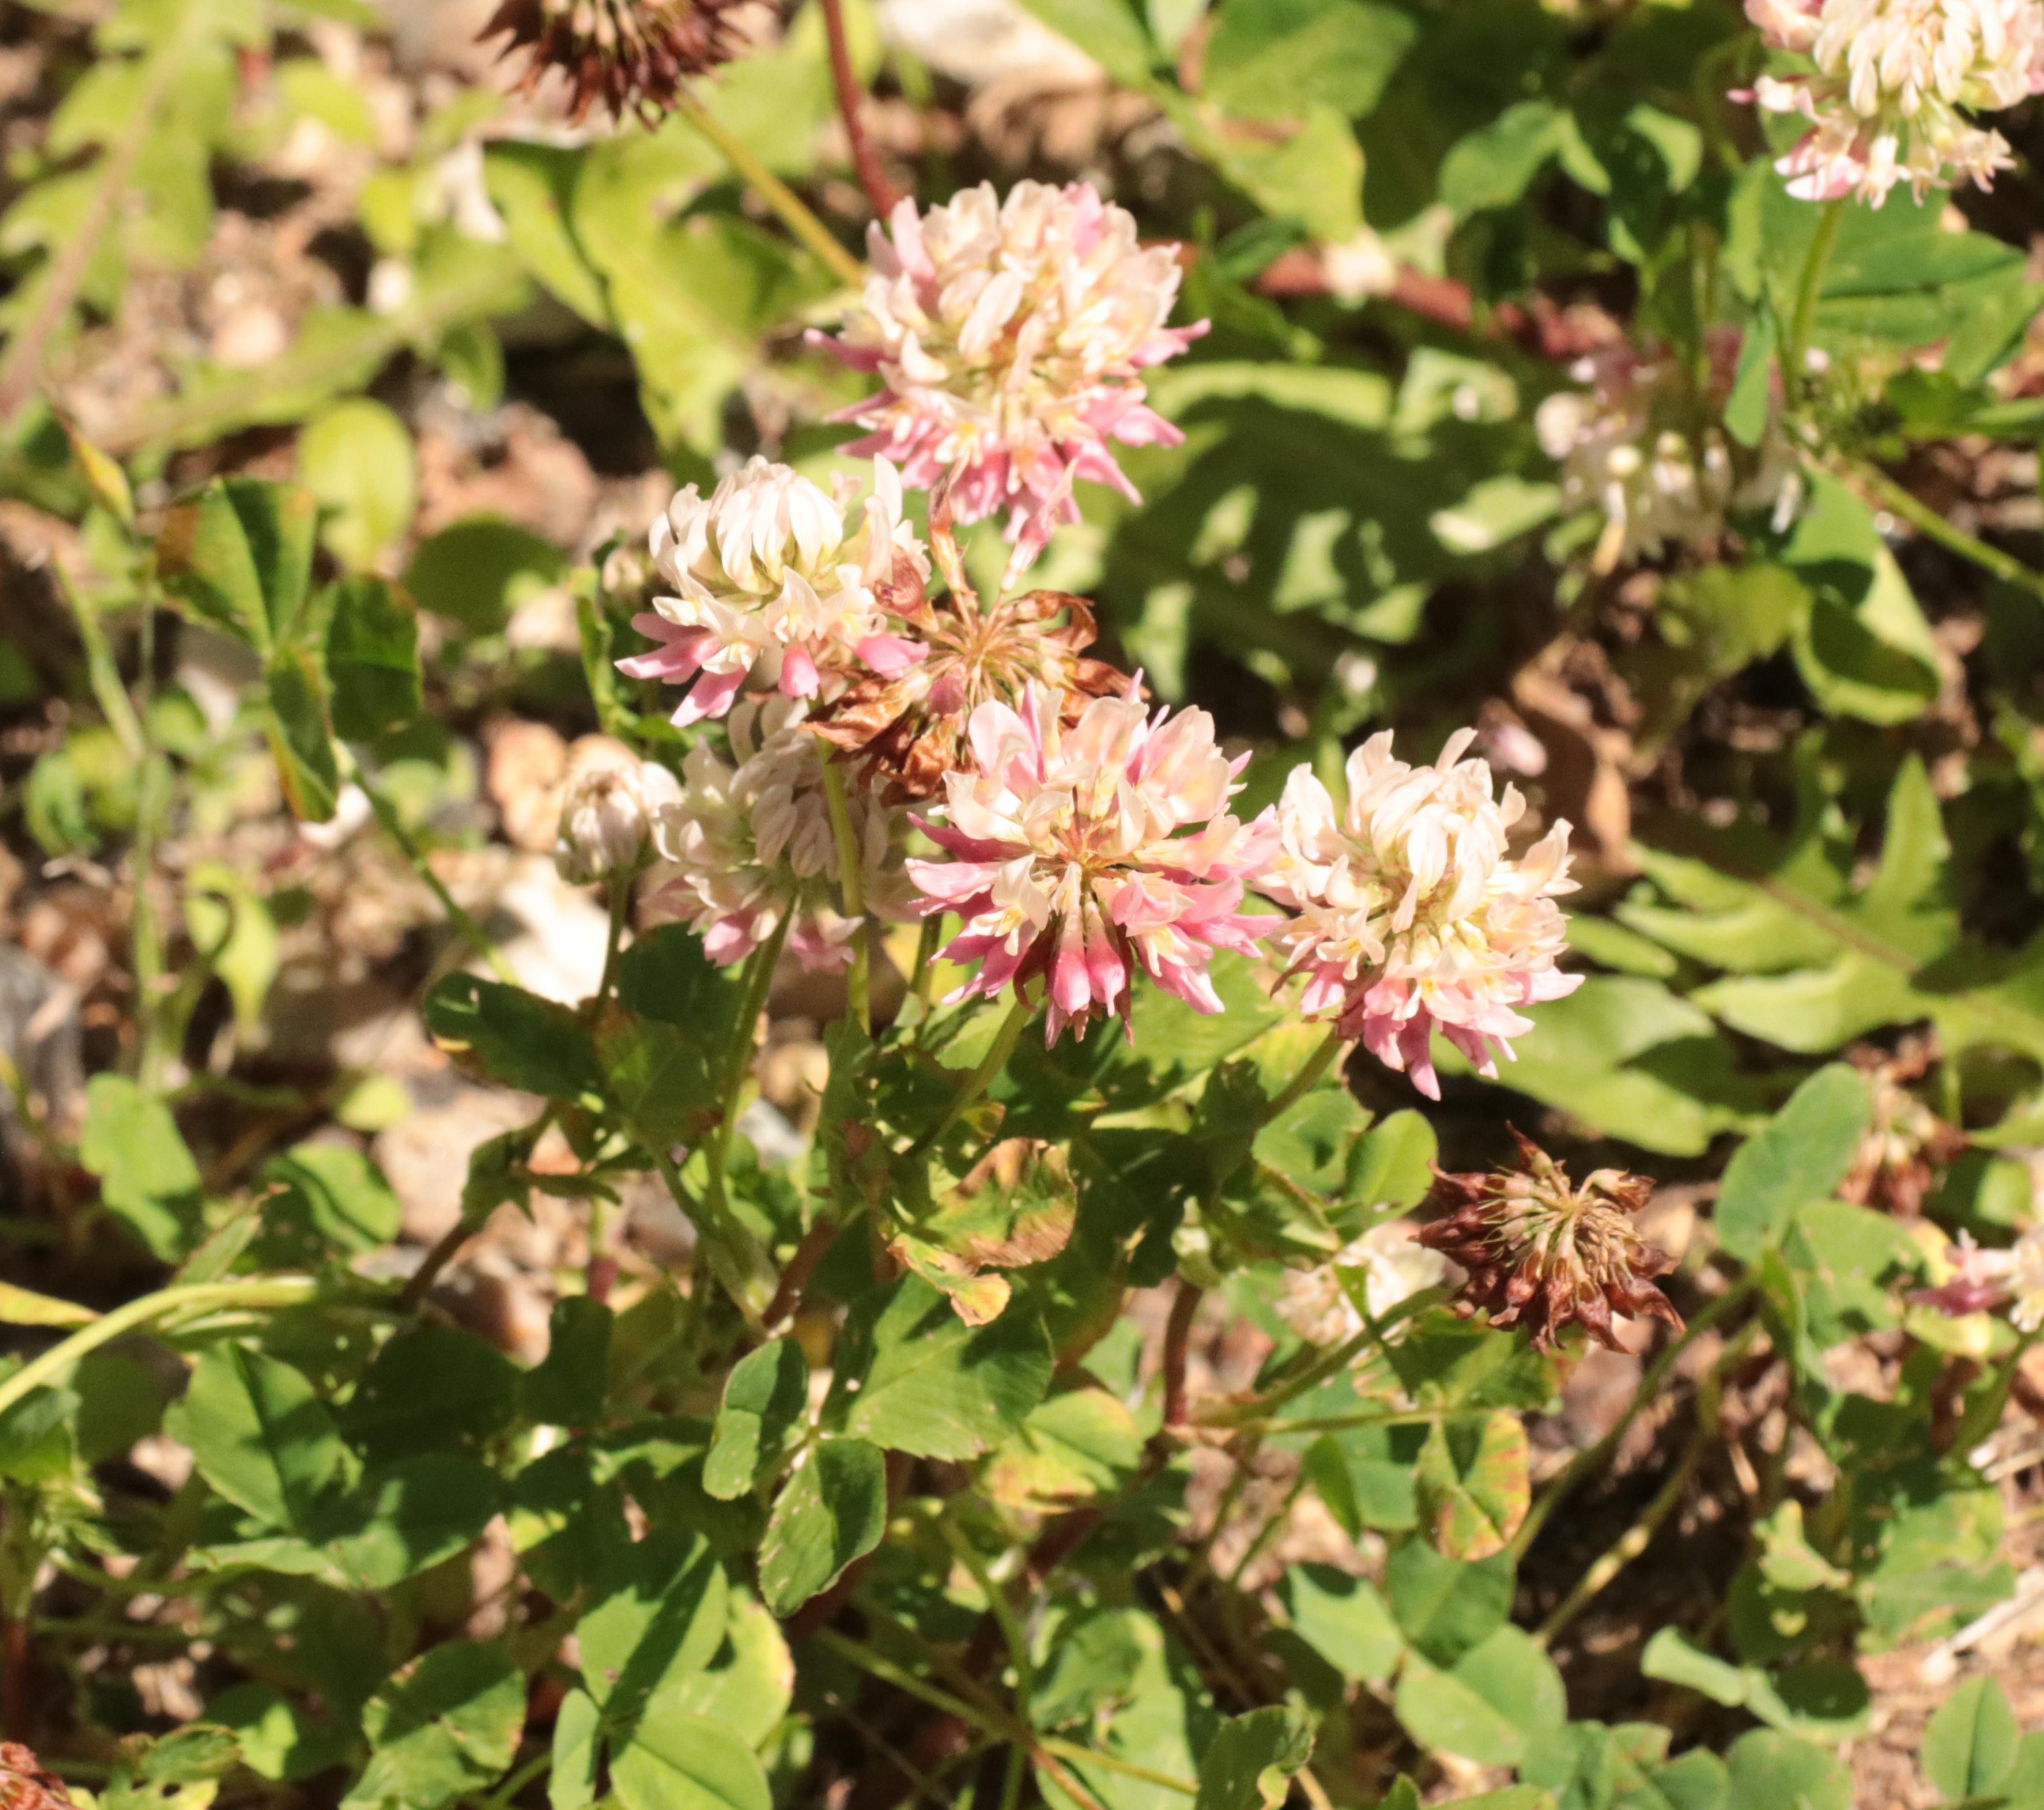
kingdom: Plantae
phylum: Tracheophyta
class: Magnoliopsida
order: Fabales
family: Fabaceae
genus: Trifolium
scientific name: Trifolium hybridum
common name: Alsike-kløver
